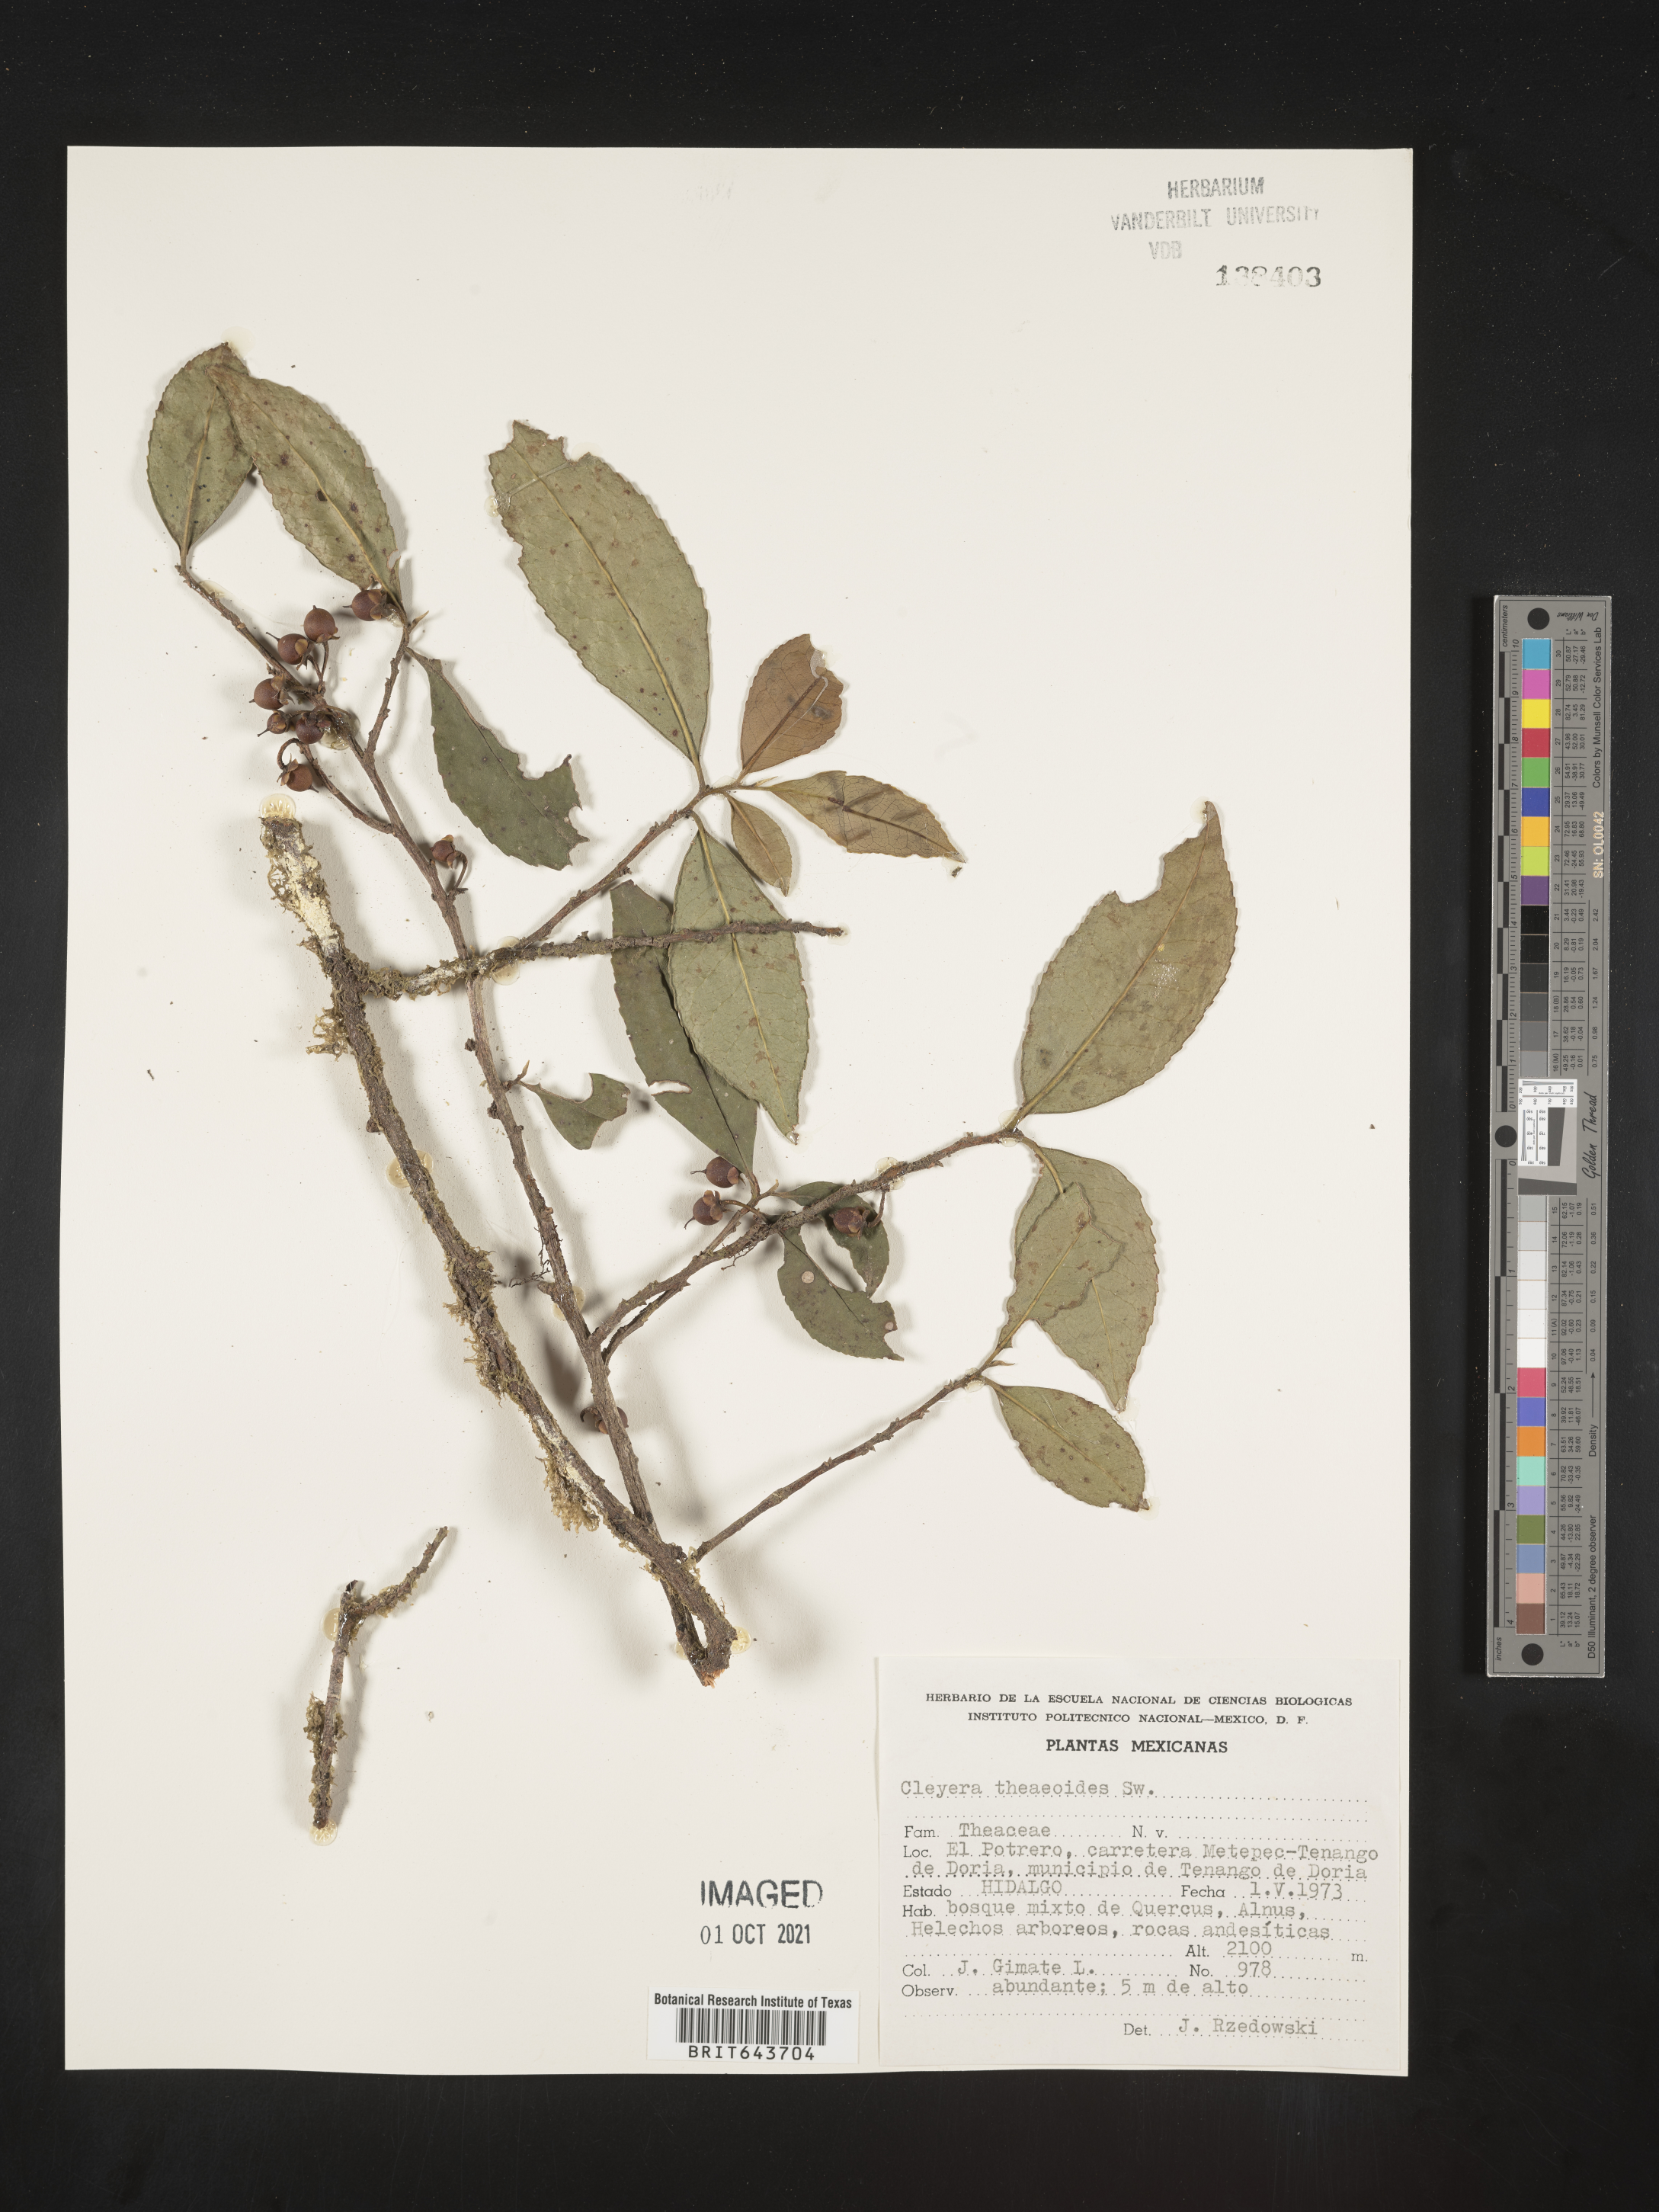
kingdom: Plantae
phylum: Tracheophyta
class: Magnoliopsida
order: Ericales
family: Pentaphylacaceae
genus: Cleyera
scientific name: Cleyera
